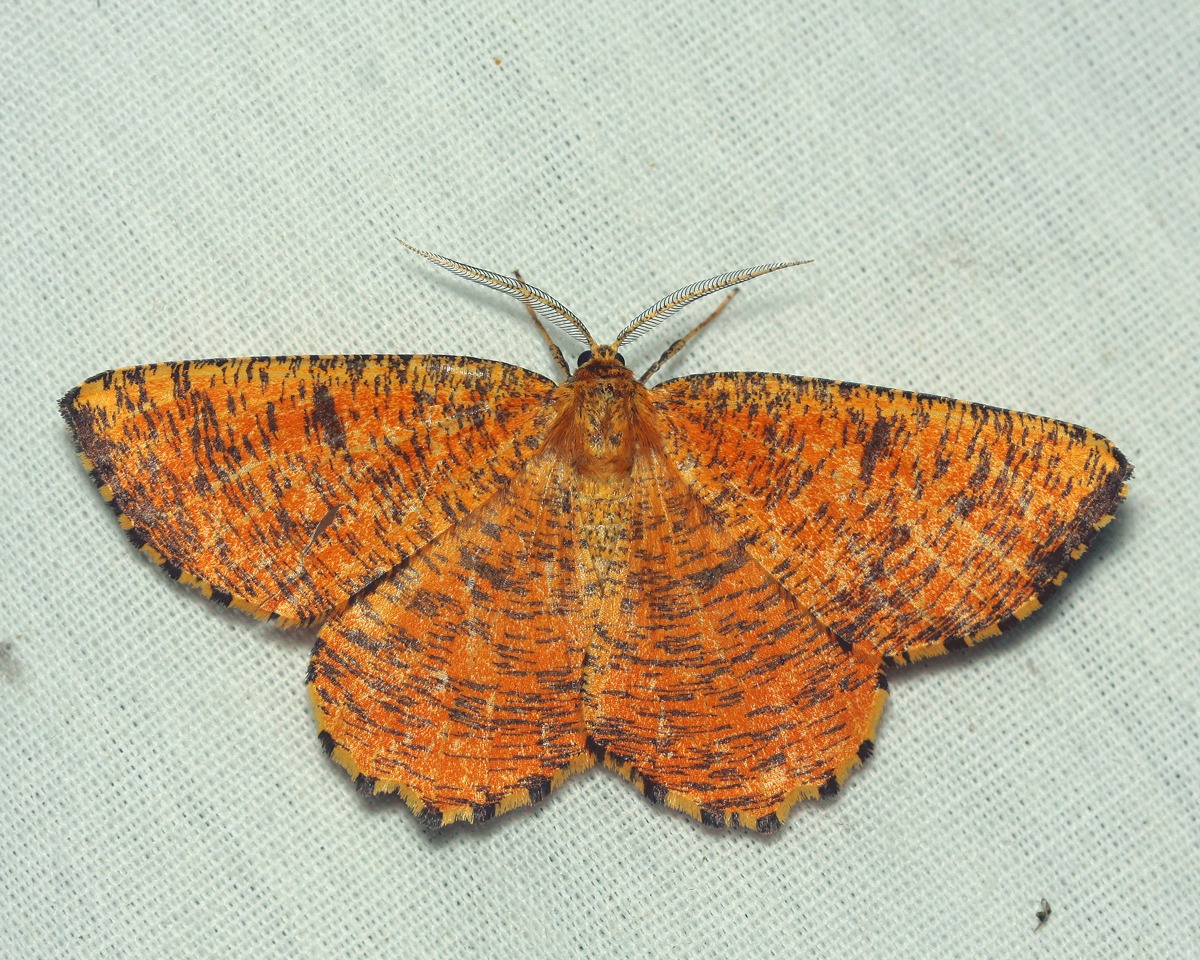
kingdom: Animalia
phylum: Arthropoda
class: Insecta
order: Lepidoptera
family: Geometridae
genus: Angerona
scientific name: Angerona prunaria
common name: Blommemåler
